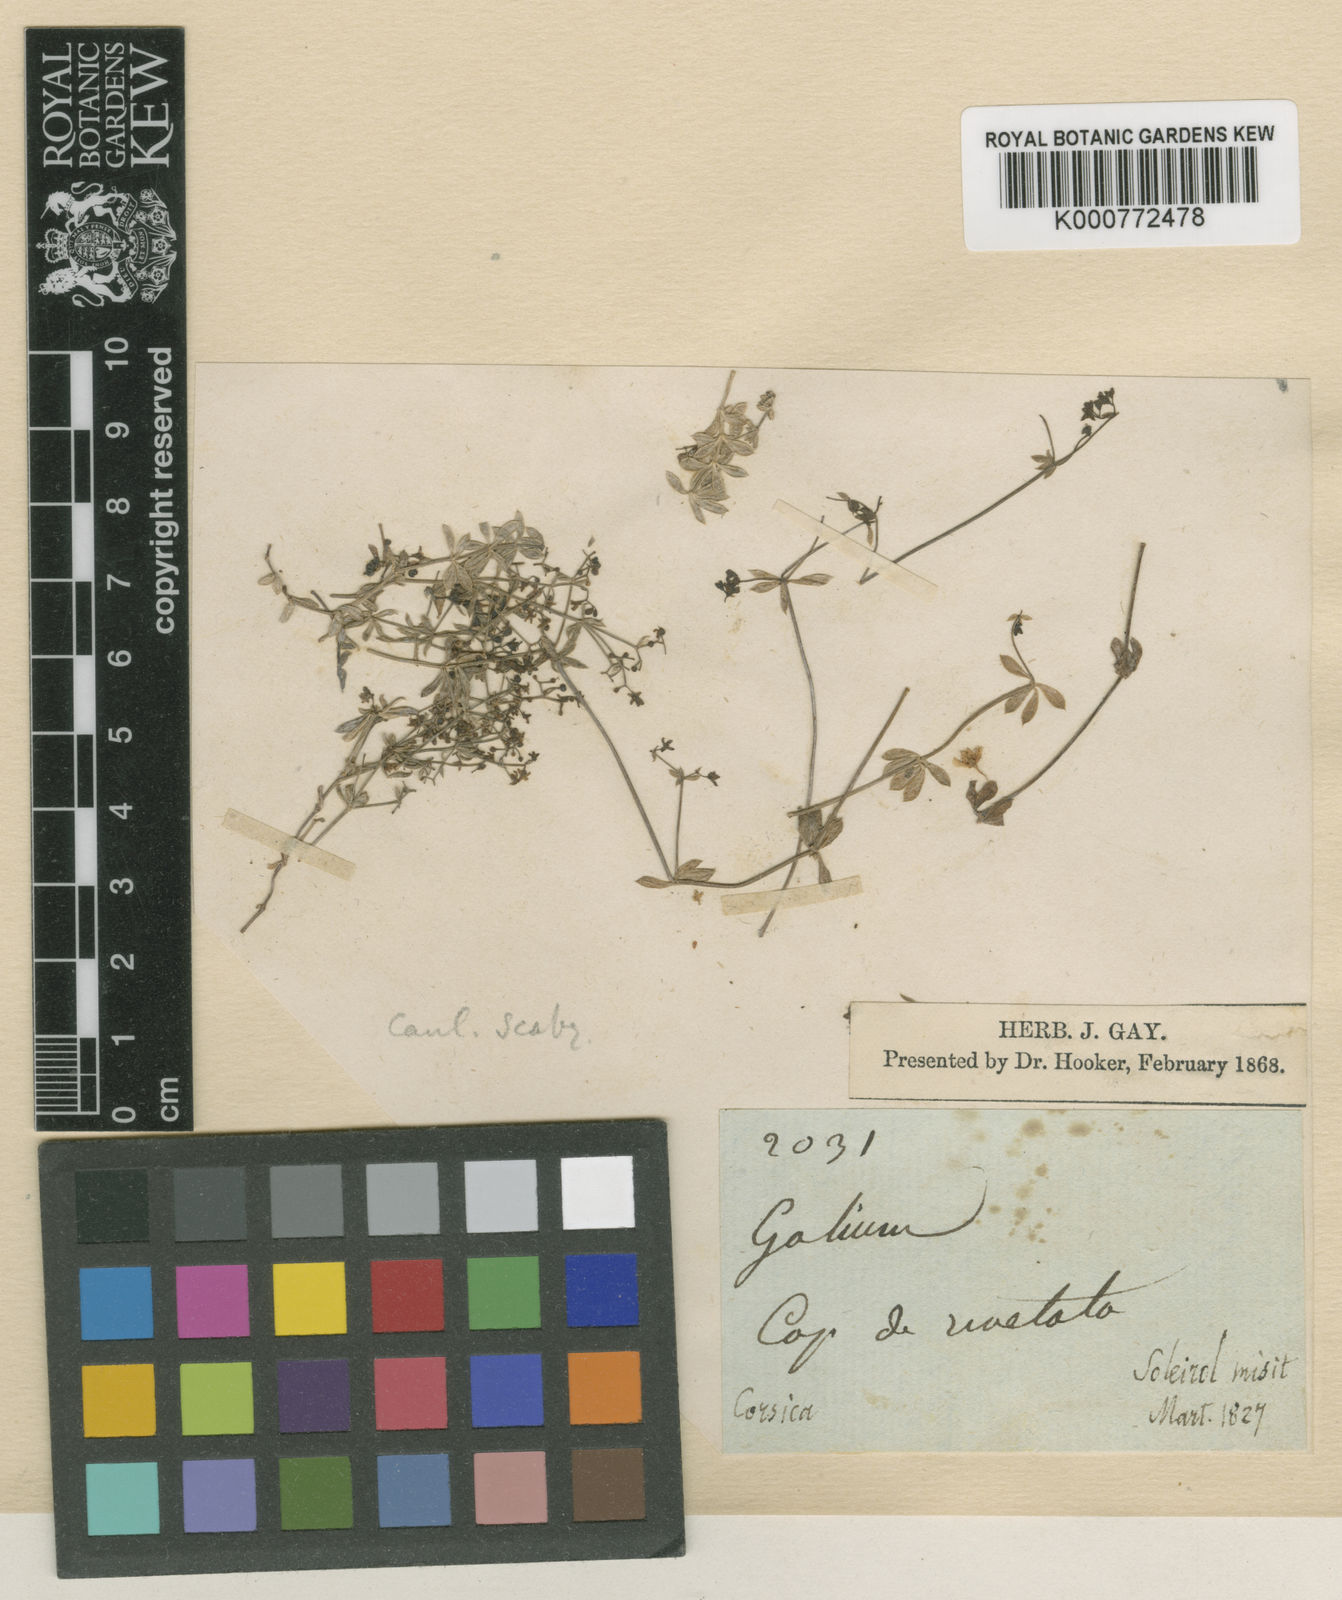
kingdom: Plantae
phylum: Tracheophyta
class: Magnoliopsida
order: Gentianales
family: Rubiaceae
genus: Galium
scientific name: Galium corsicum
